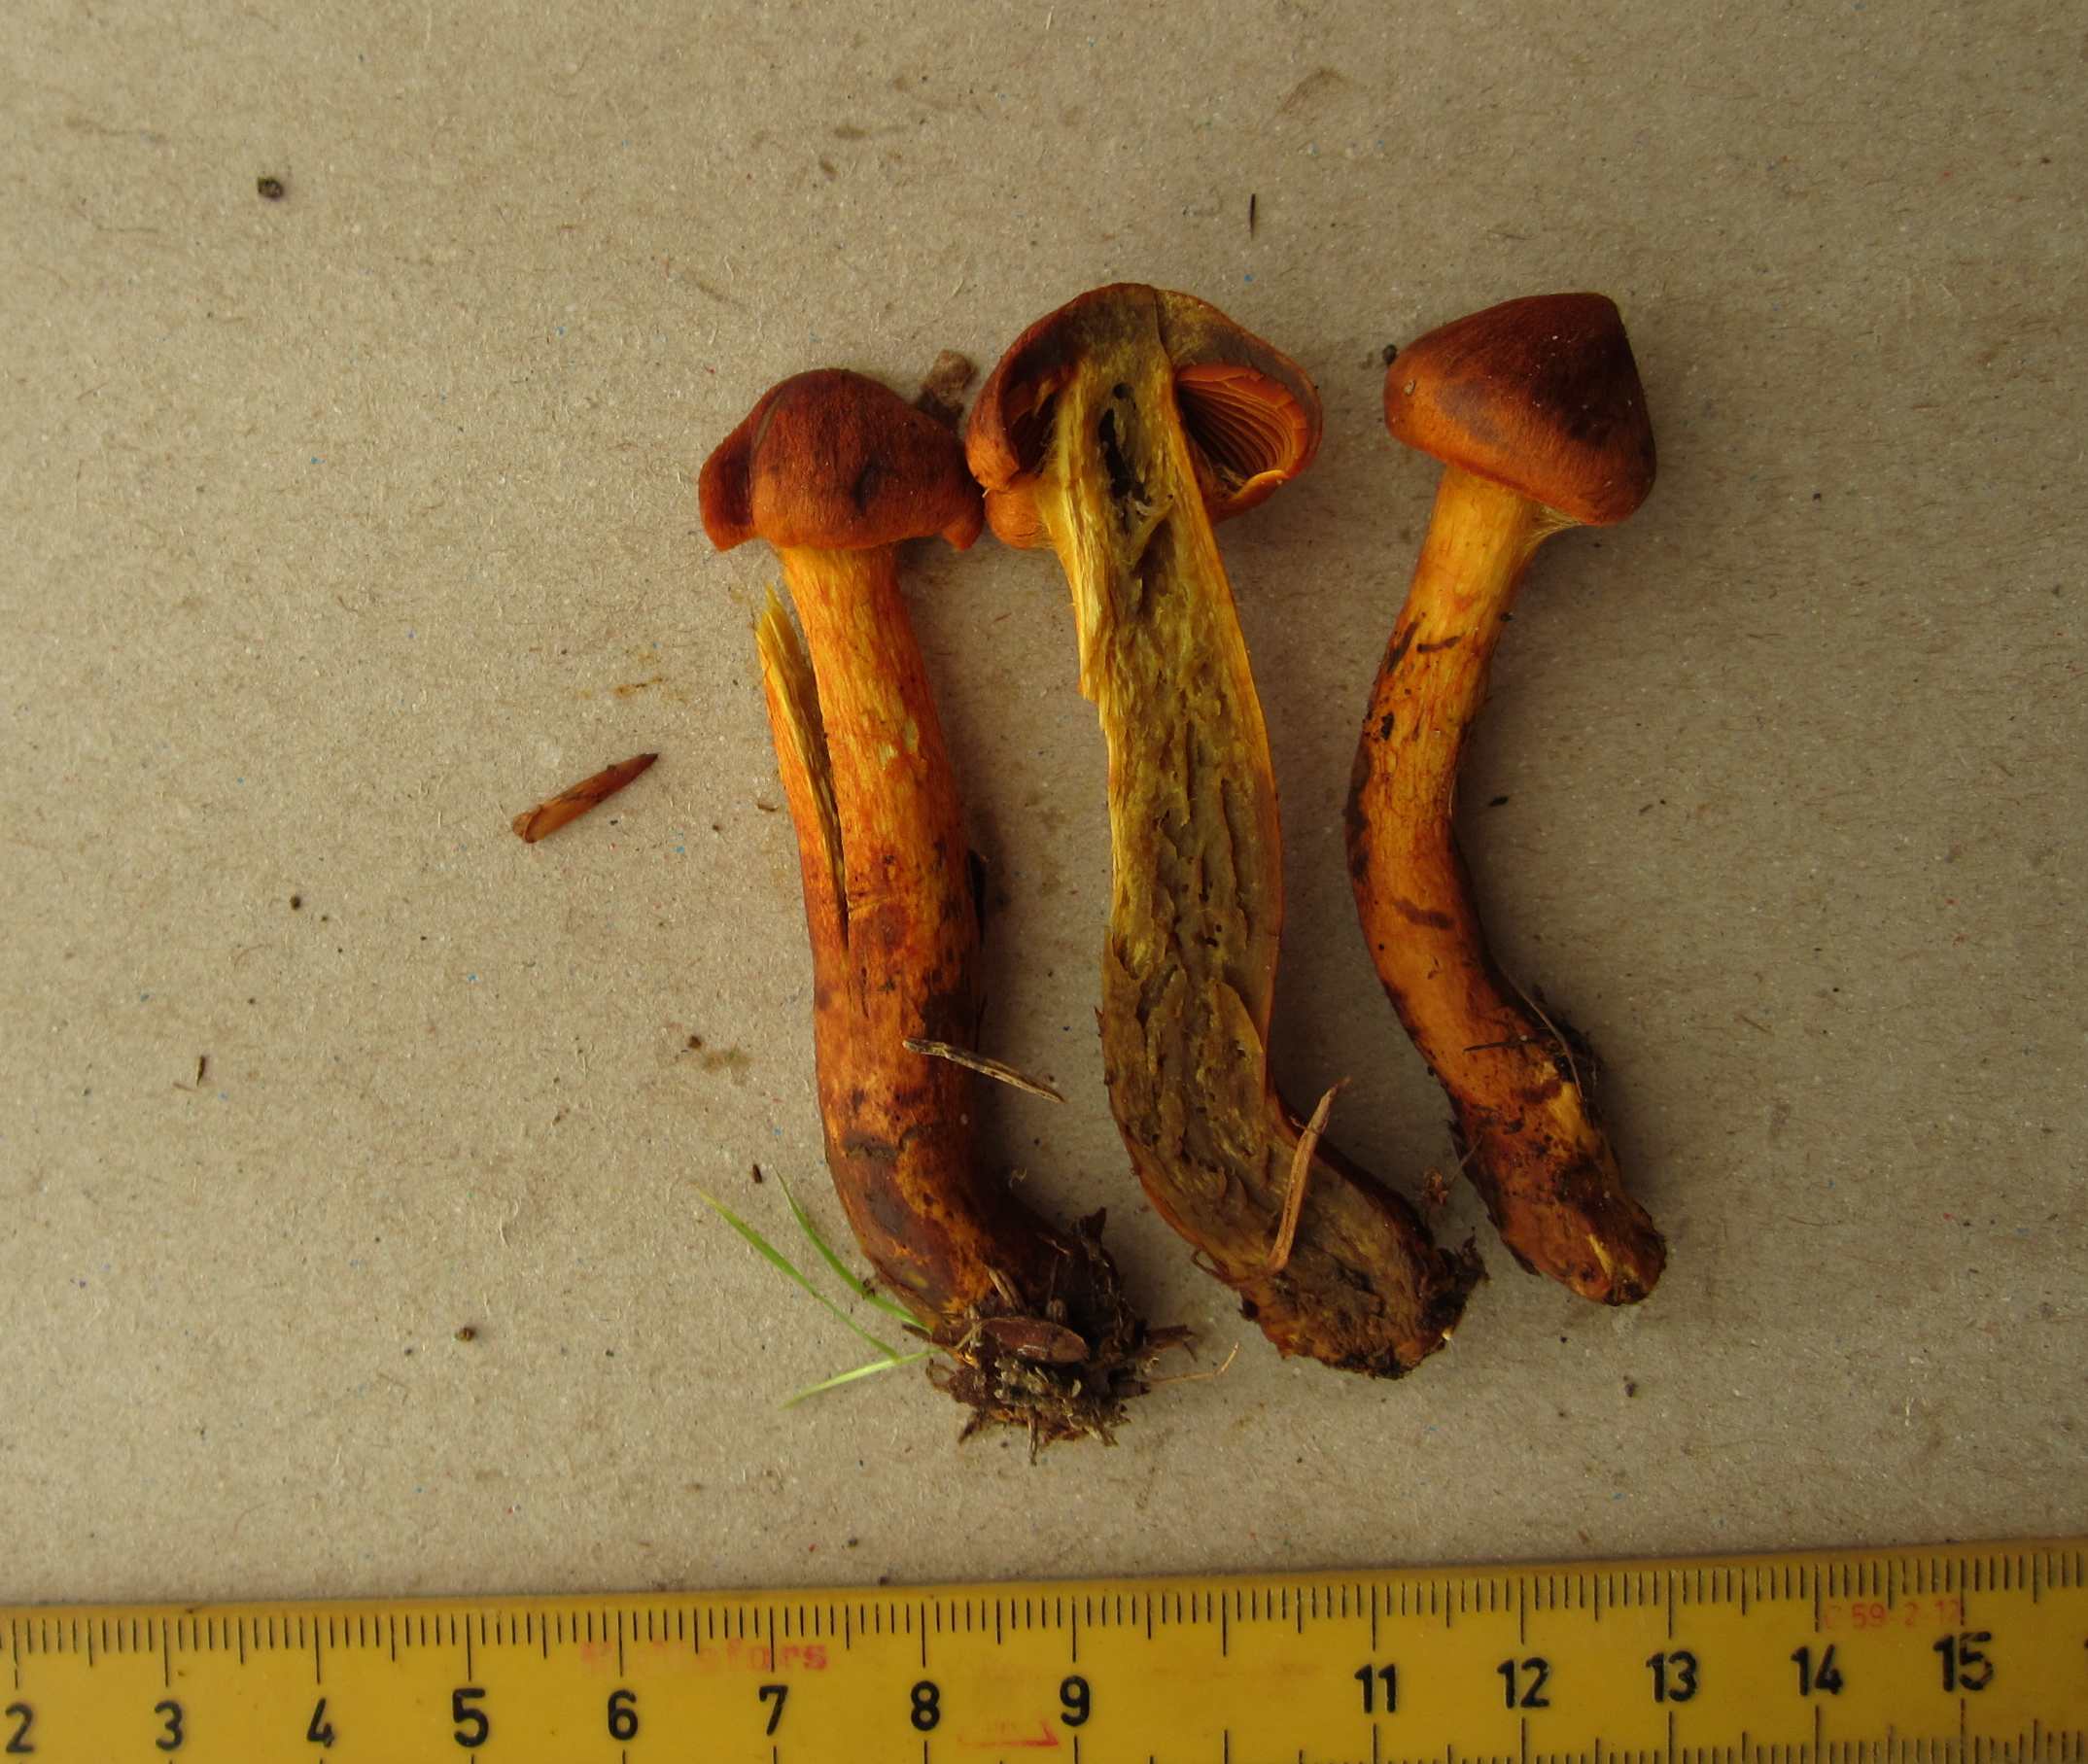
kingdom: Fungi
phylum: Basidiomycota
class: Agaricomycetes
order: Agaricales
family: Cortinariaceae
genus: Cortinarius
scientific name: Cortinarius malicorius
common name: grønkødet slørhat
